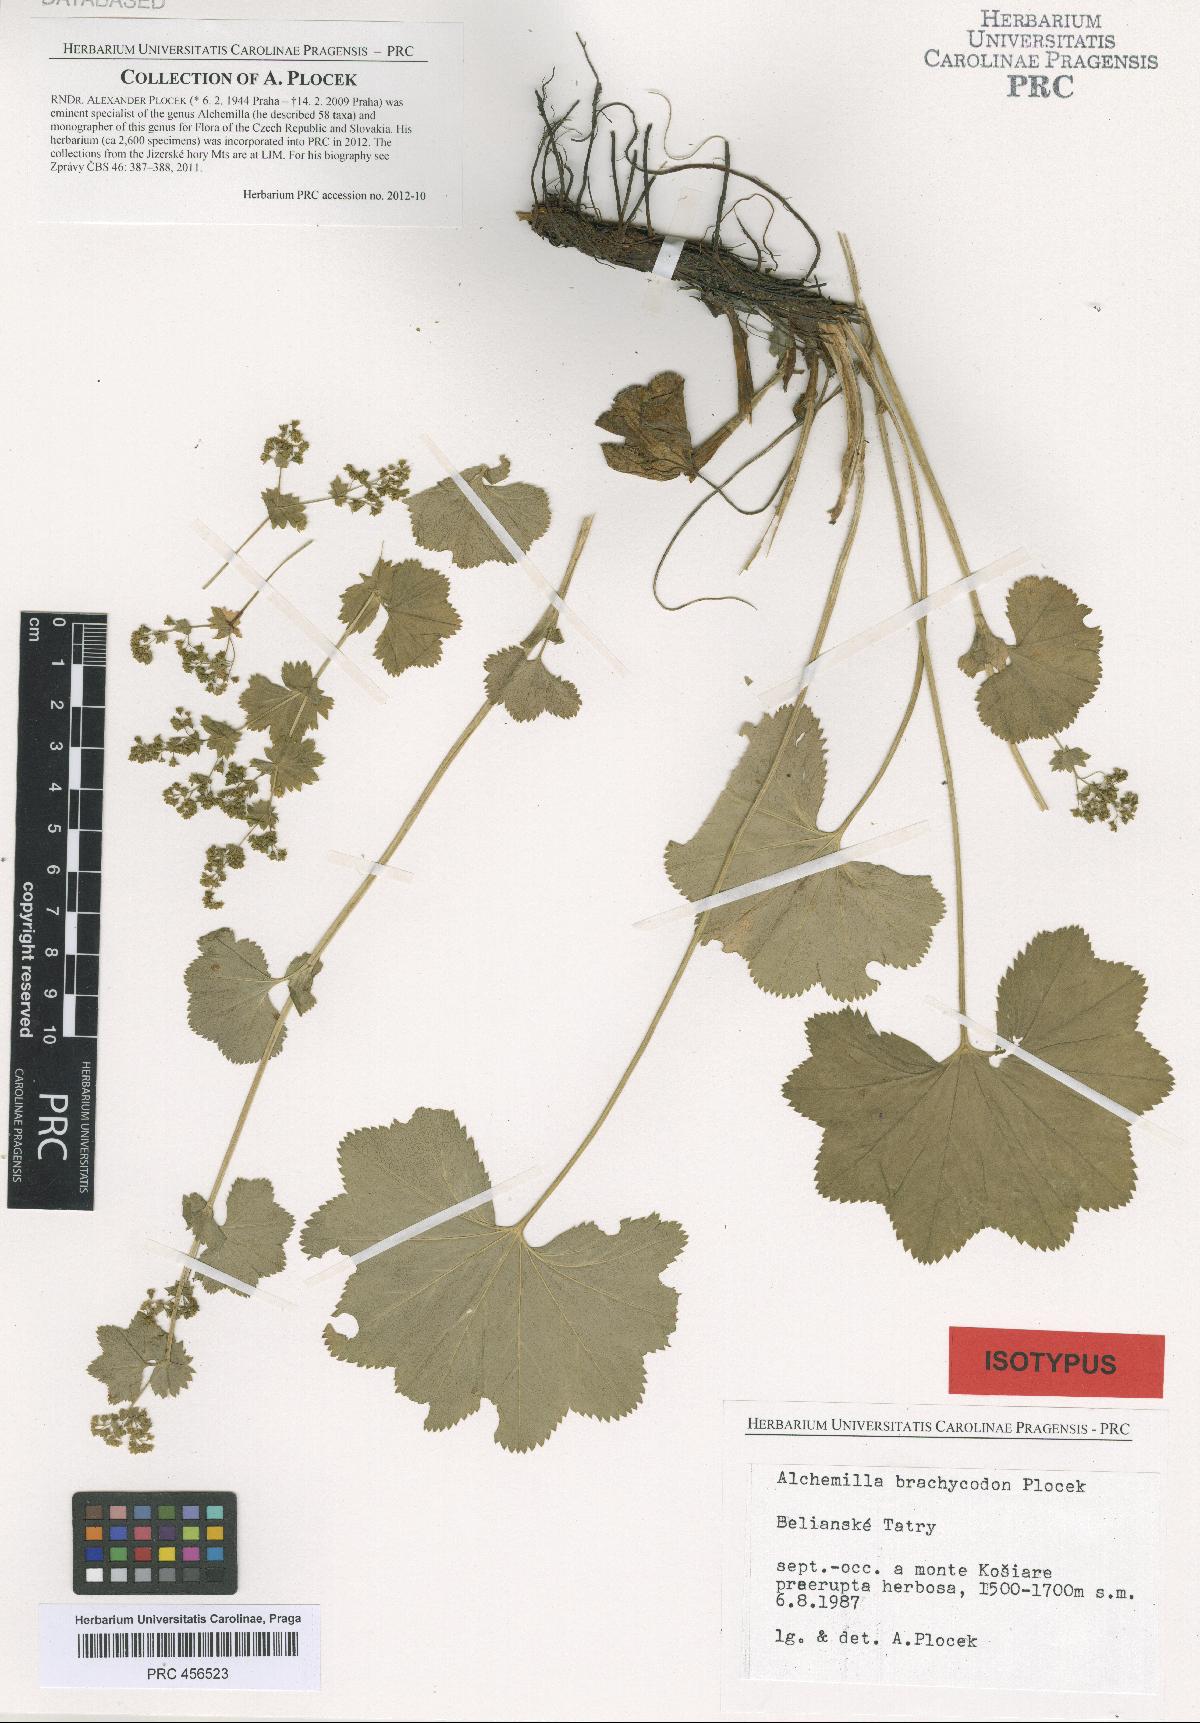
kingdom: Plantae
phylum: Tracheophyta
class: Magnoliopsida
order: Rosales
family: Rosaceae
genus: Alchemilla
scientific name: Alchemilla brachycodon
